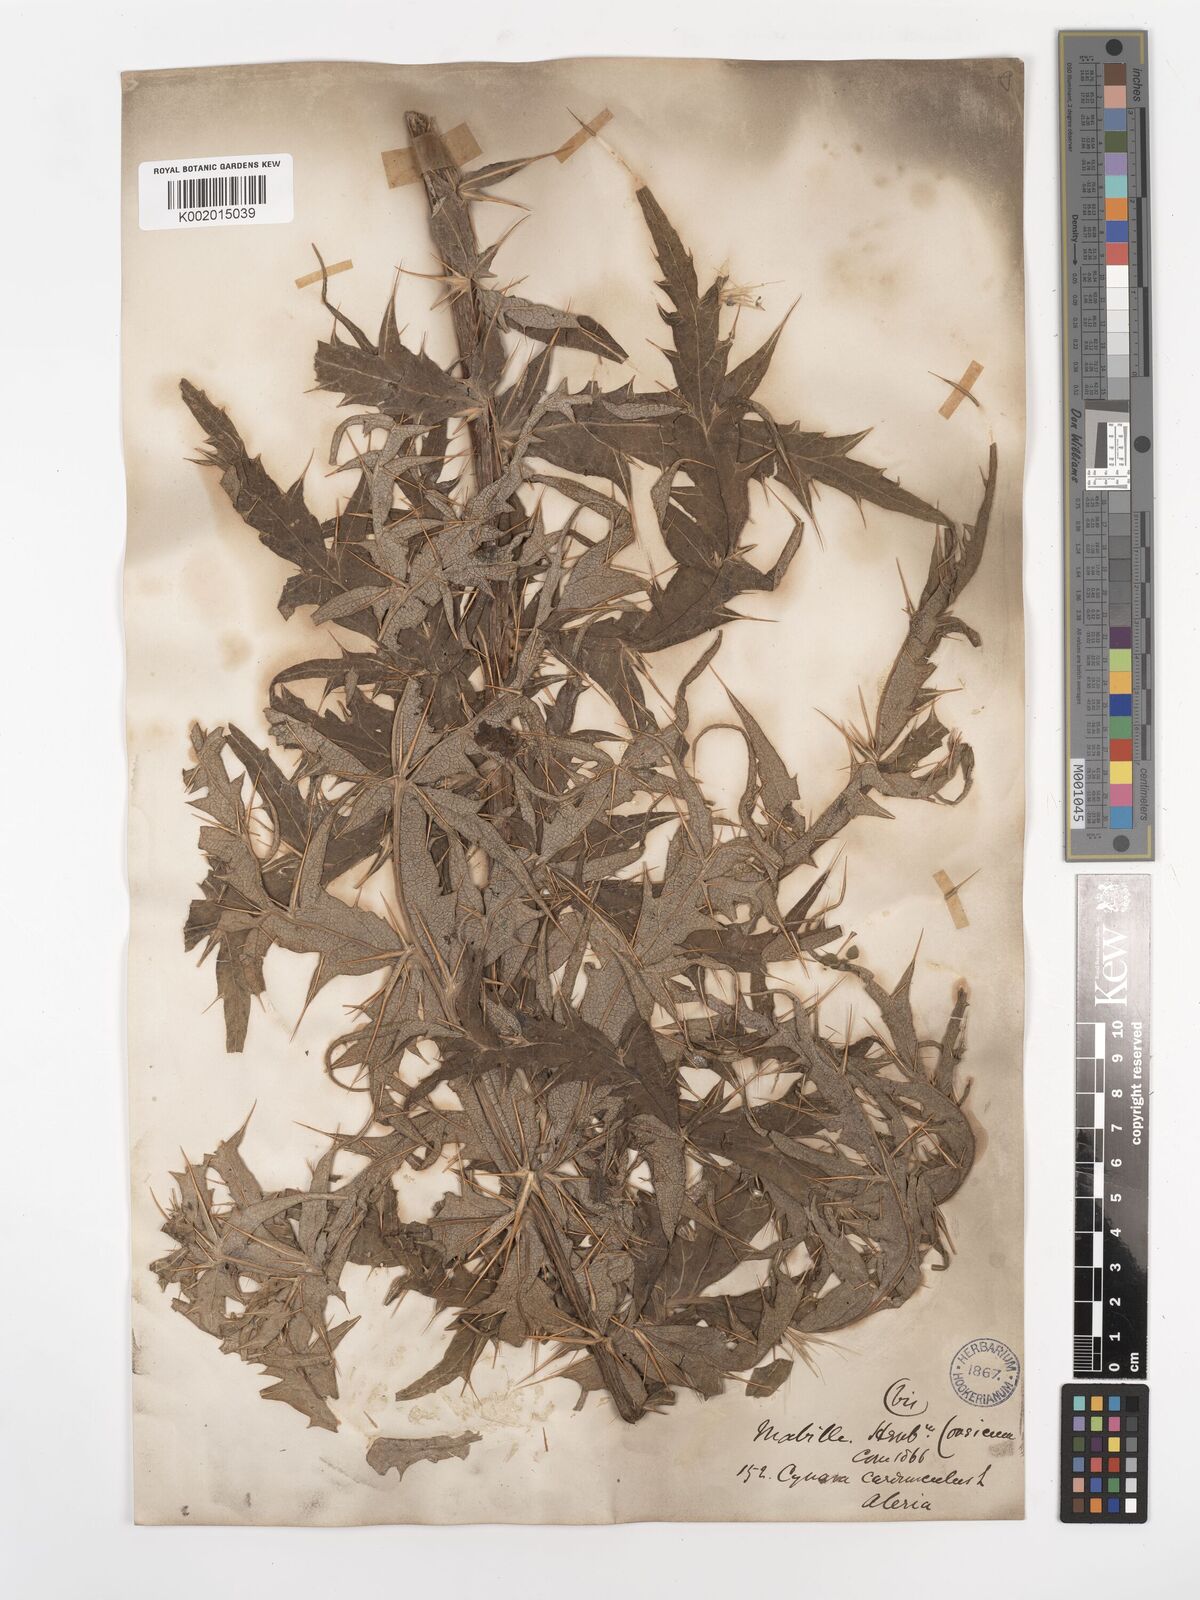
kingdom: Plantae
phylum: Tracheophyta
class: Magnoliopsida
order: Asterales
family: Asteraceae
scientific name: Asteraceae
